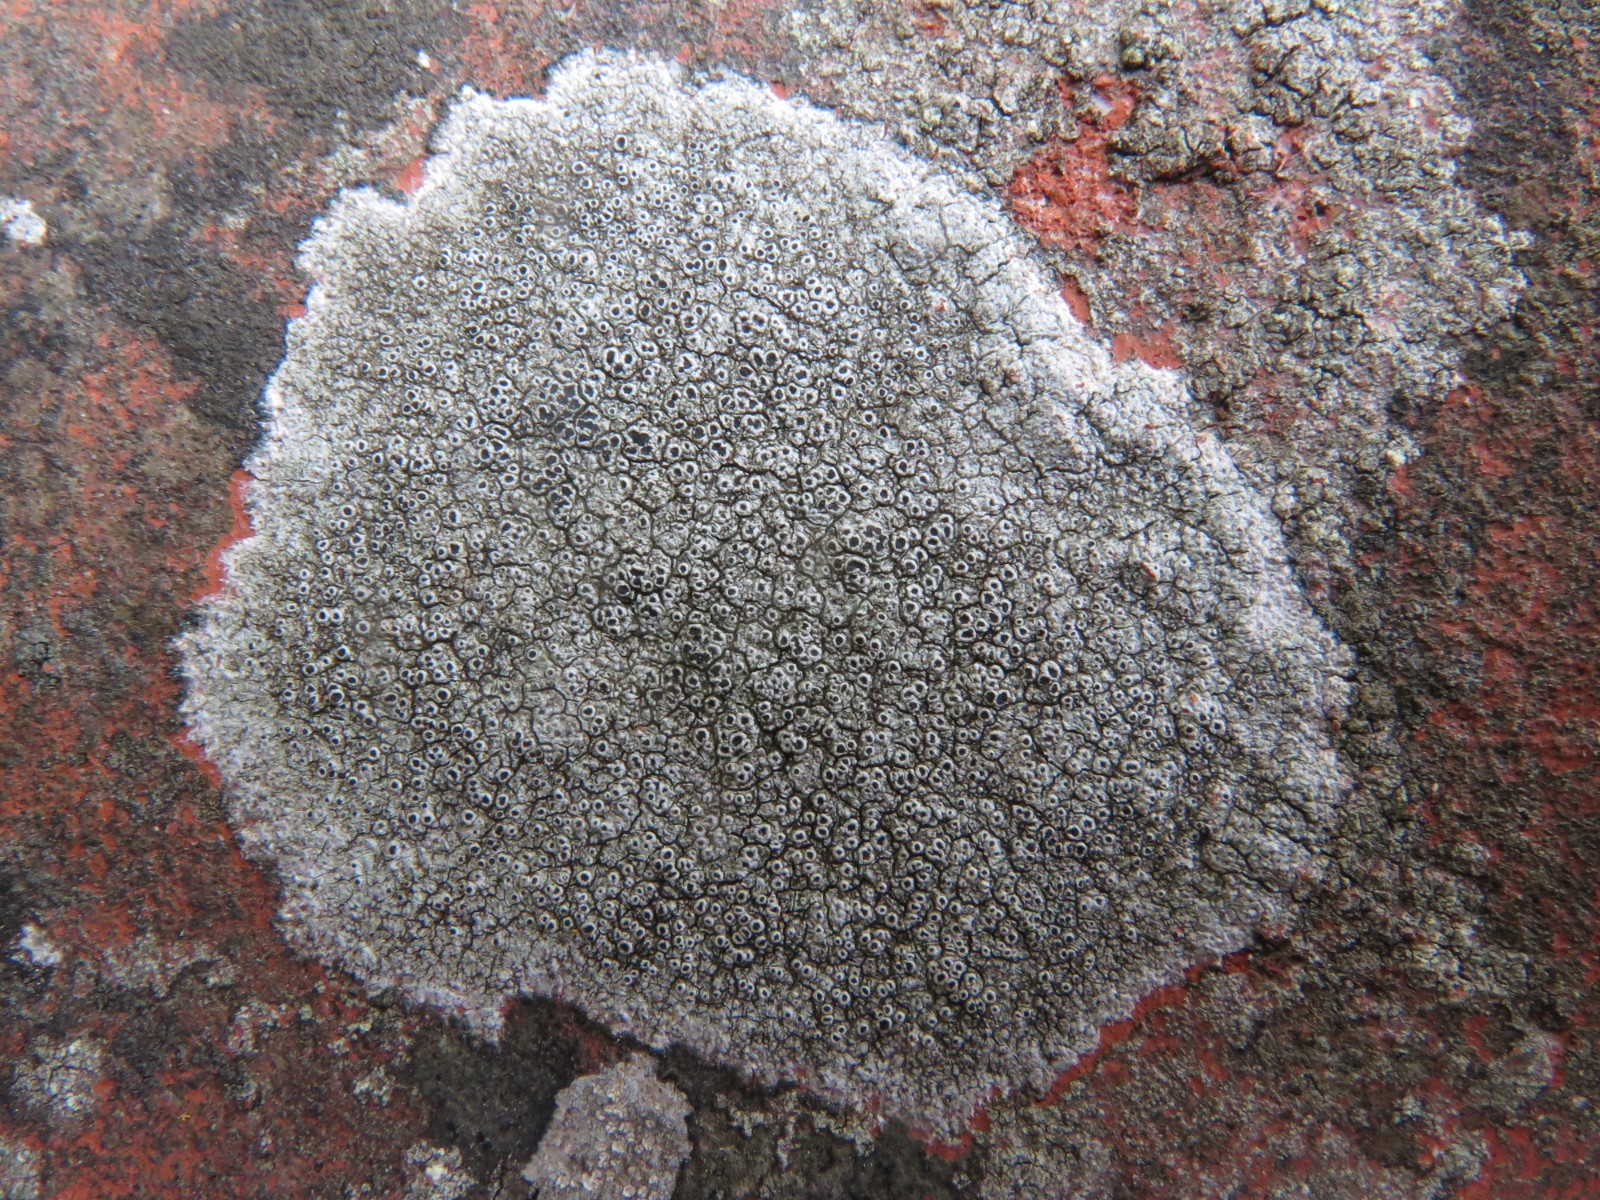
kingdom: Fungi
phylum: Ascomycota
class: Lecanoromycetes
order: Pertusariales
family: Megasporaceae
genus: Aspicilia
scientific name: Aspicilia cinerea
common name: grå hulskivelav
